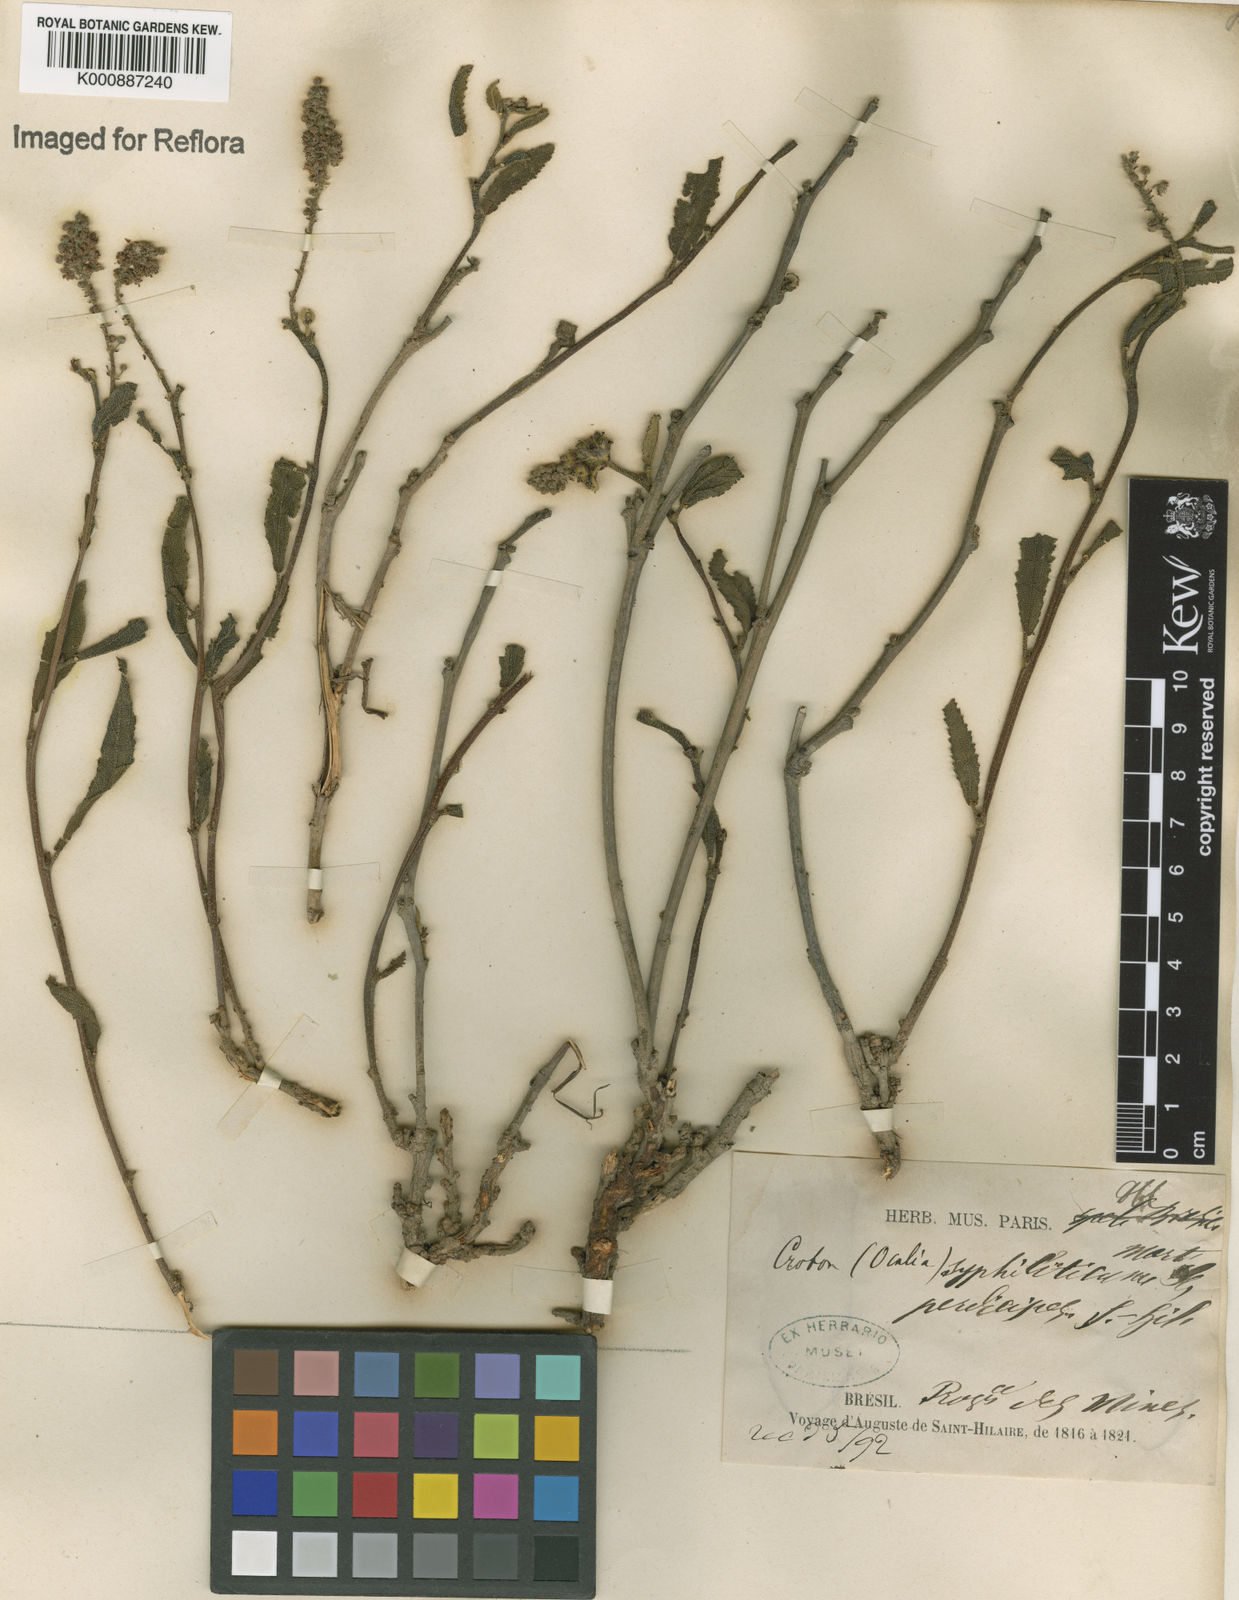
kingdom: Plantae
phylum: Tracheophyta
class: Magnoliopsida
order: Malpighiales
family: Euphorbiaceae
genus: Croton
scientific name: Croton antisyphiliticus
